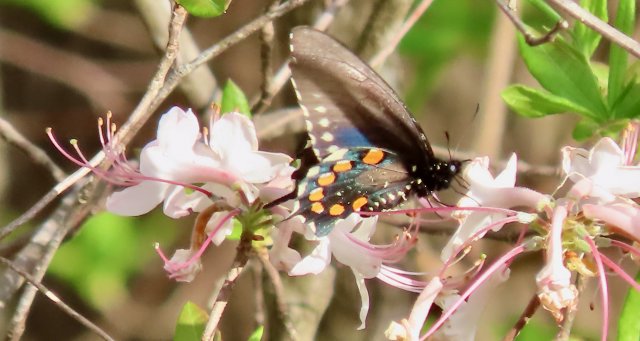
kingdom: Animalia
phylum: Arthropoda
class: Insecta
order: Lepidoptera
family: Papilionidae
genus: Battus
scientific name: Battus philenor
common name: Pipevine Swallowtail
